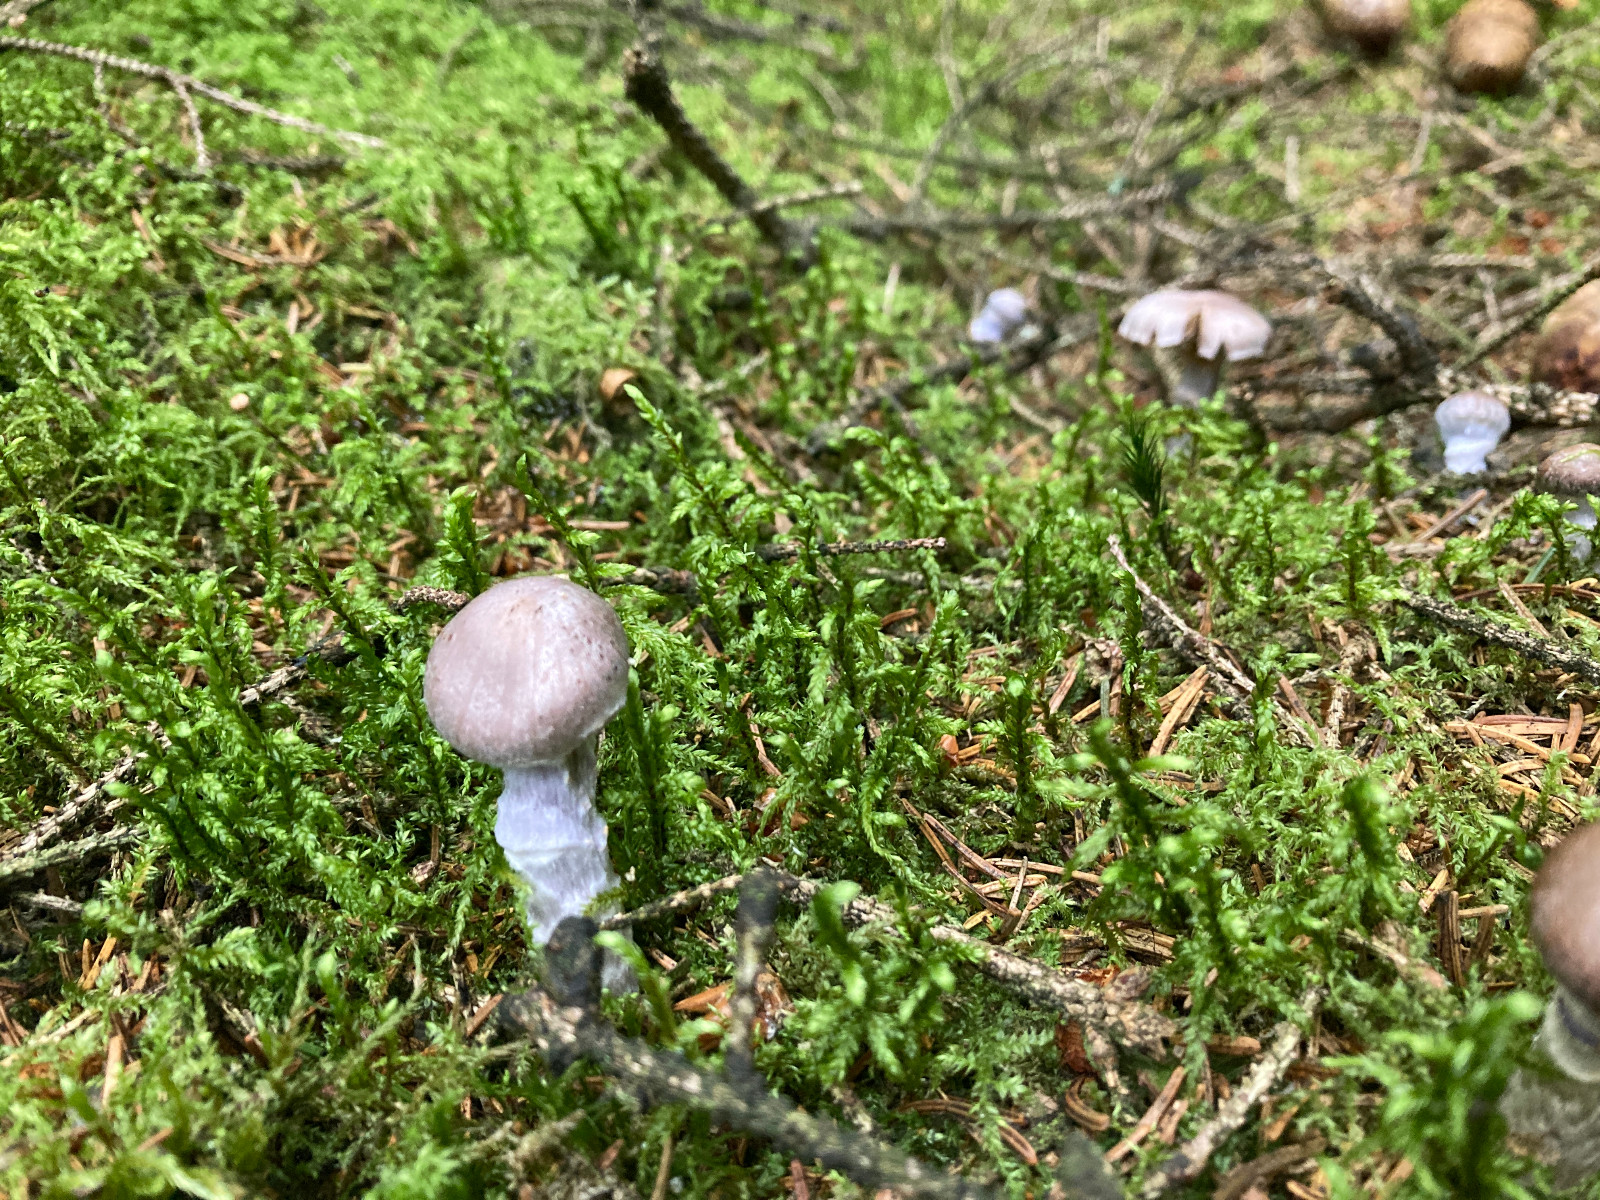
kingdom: Fungi
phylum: Basidiomycota
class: Agaricomycetes
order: Agaricales
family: Cortinariaceae
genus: Cortinarius
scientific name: Cortinarius
